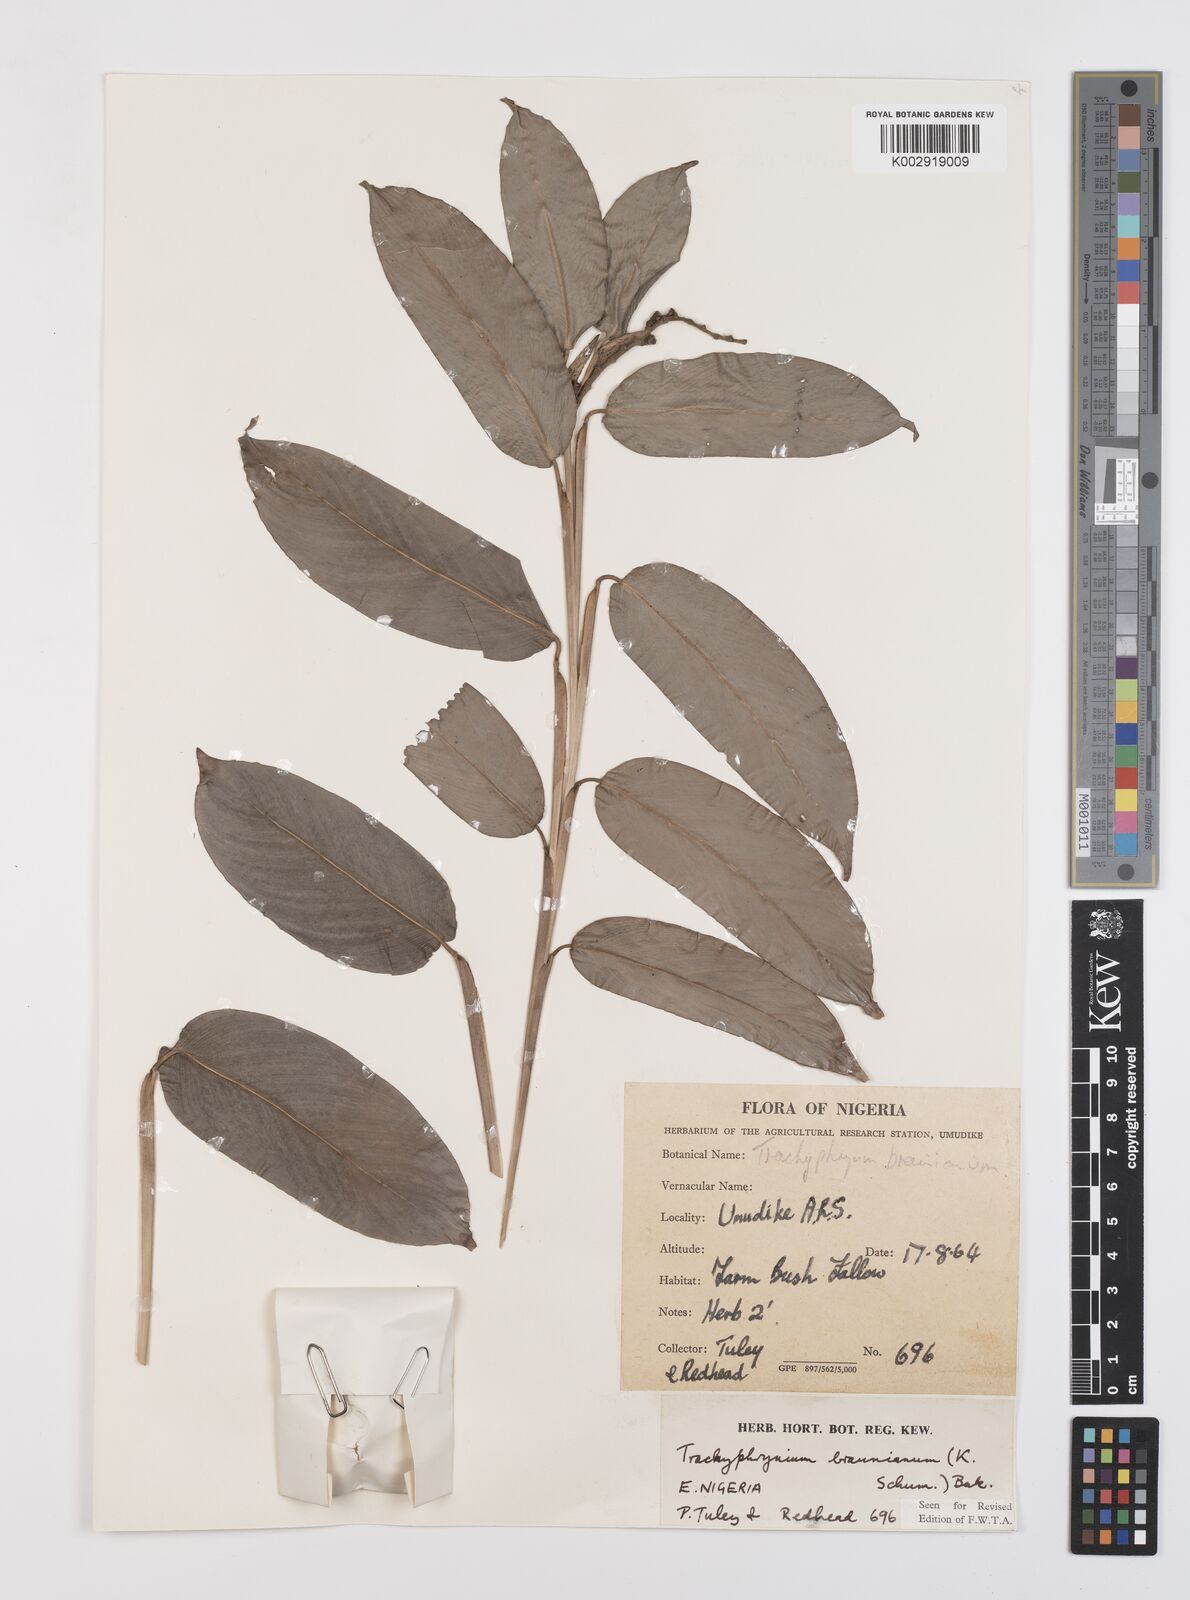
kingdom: Plantae
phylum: Tracheophyta
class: Liliopsida
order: Zingiberales
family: Marantaceae
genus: Trachyphrynium
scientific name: Trachyphrynium braunianum
